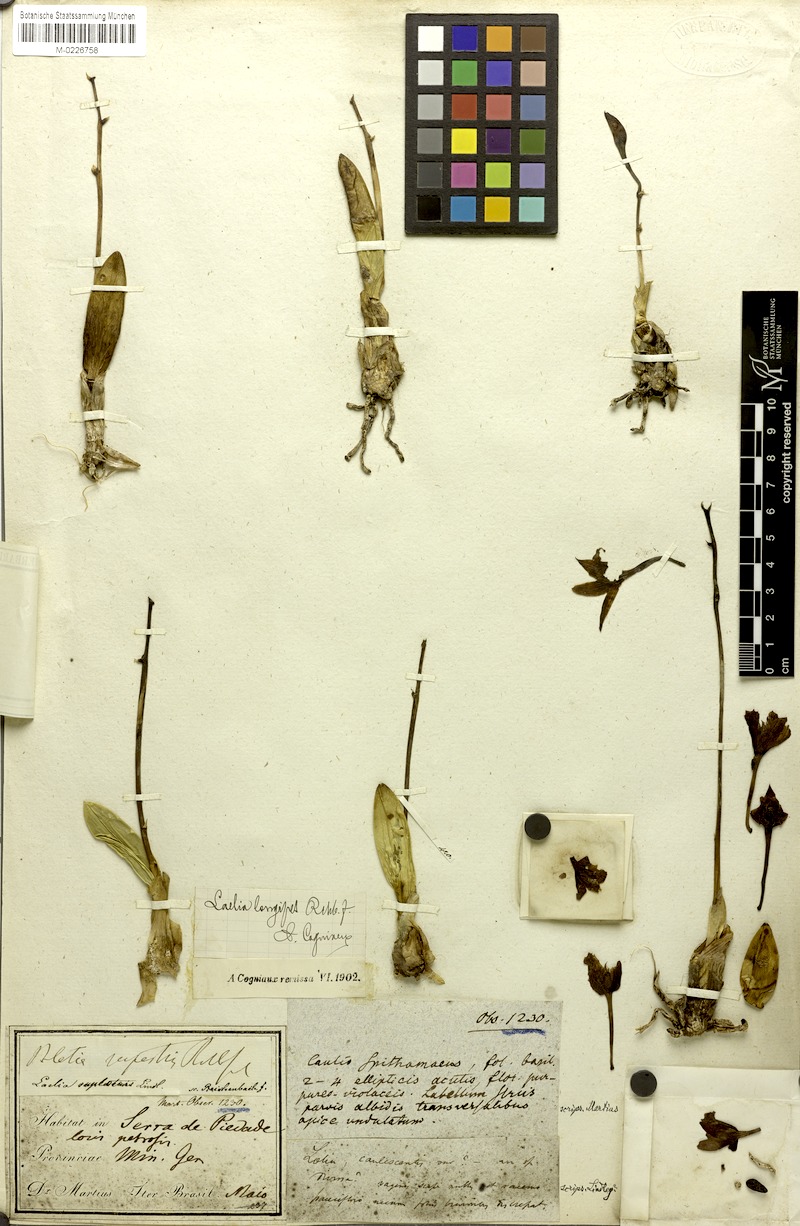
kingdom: Plantae
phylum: Tracheophyta
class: Liliopsida
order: Asparagales
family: Orchidaceae
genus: Cattleya
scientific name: Cattleya longipes
